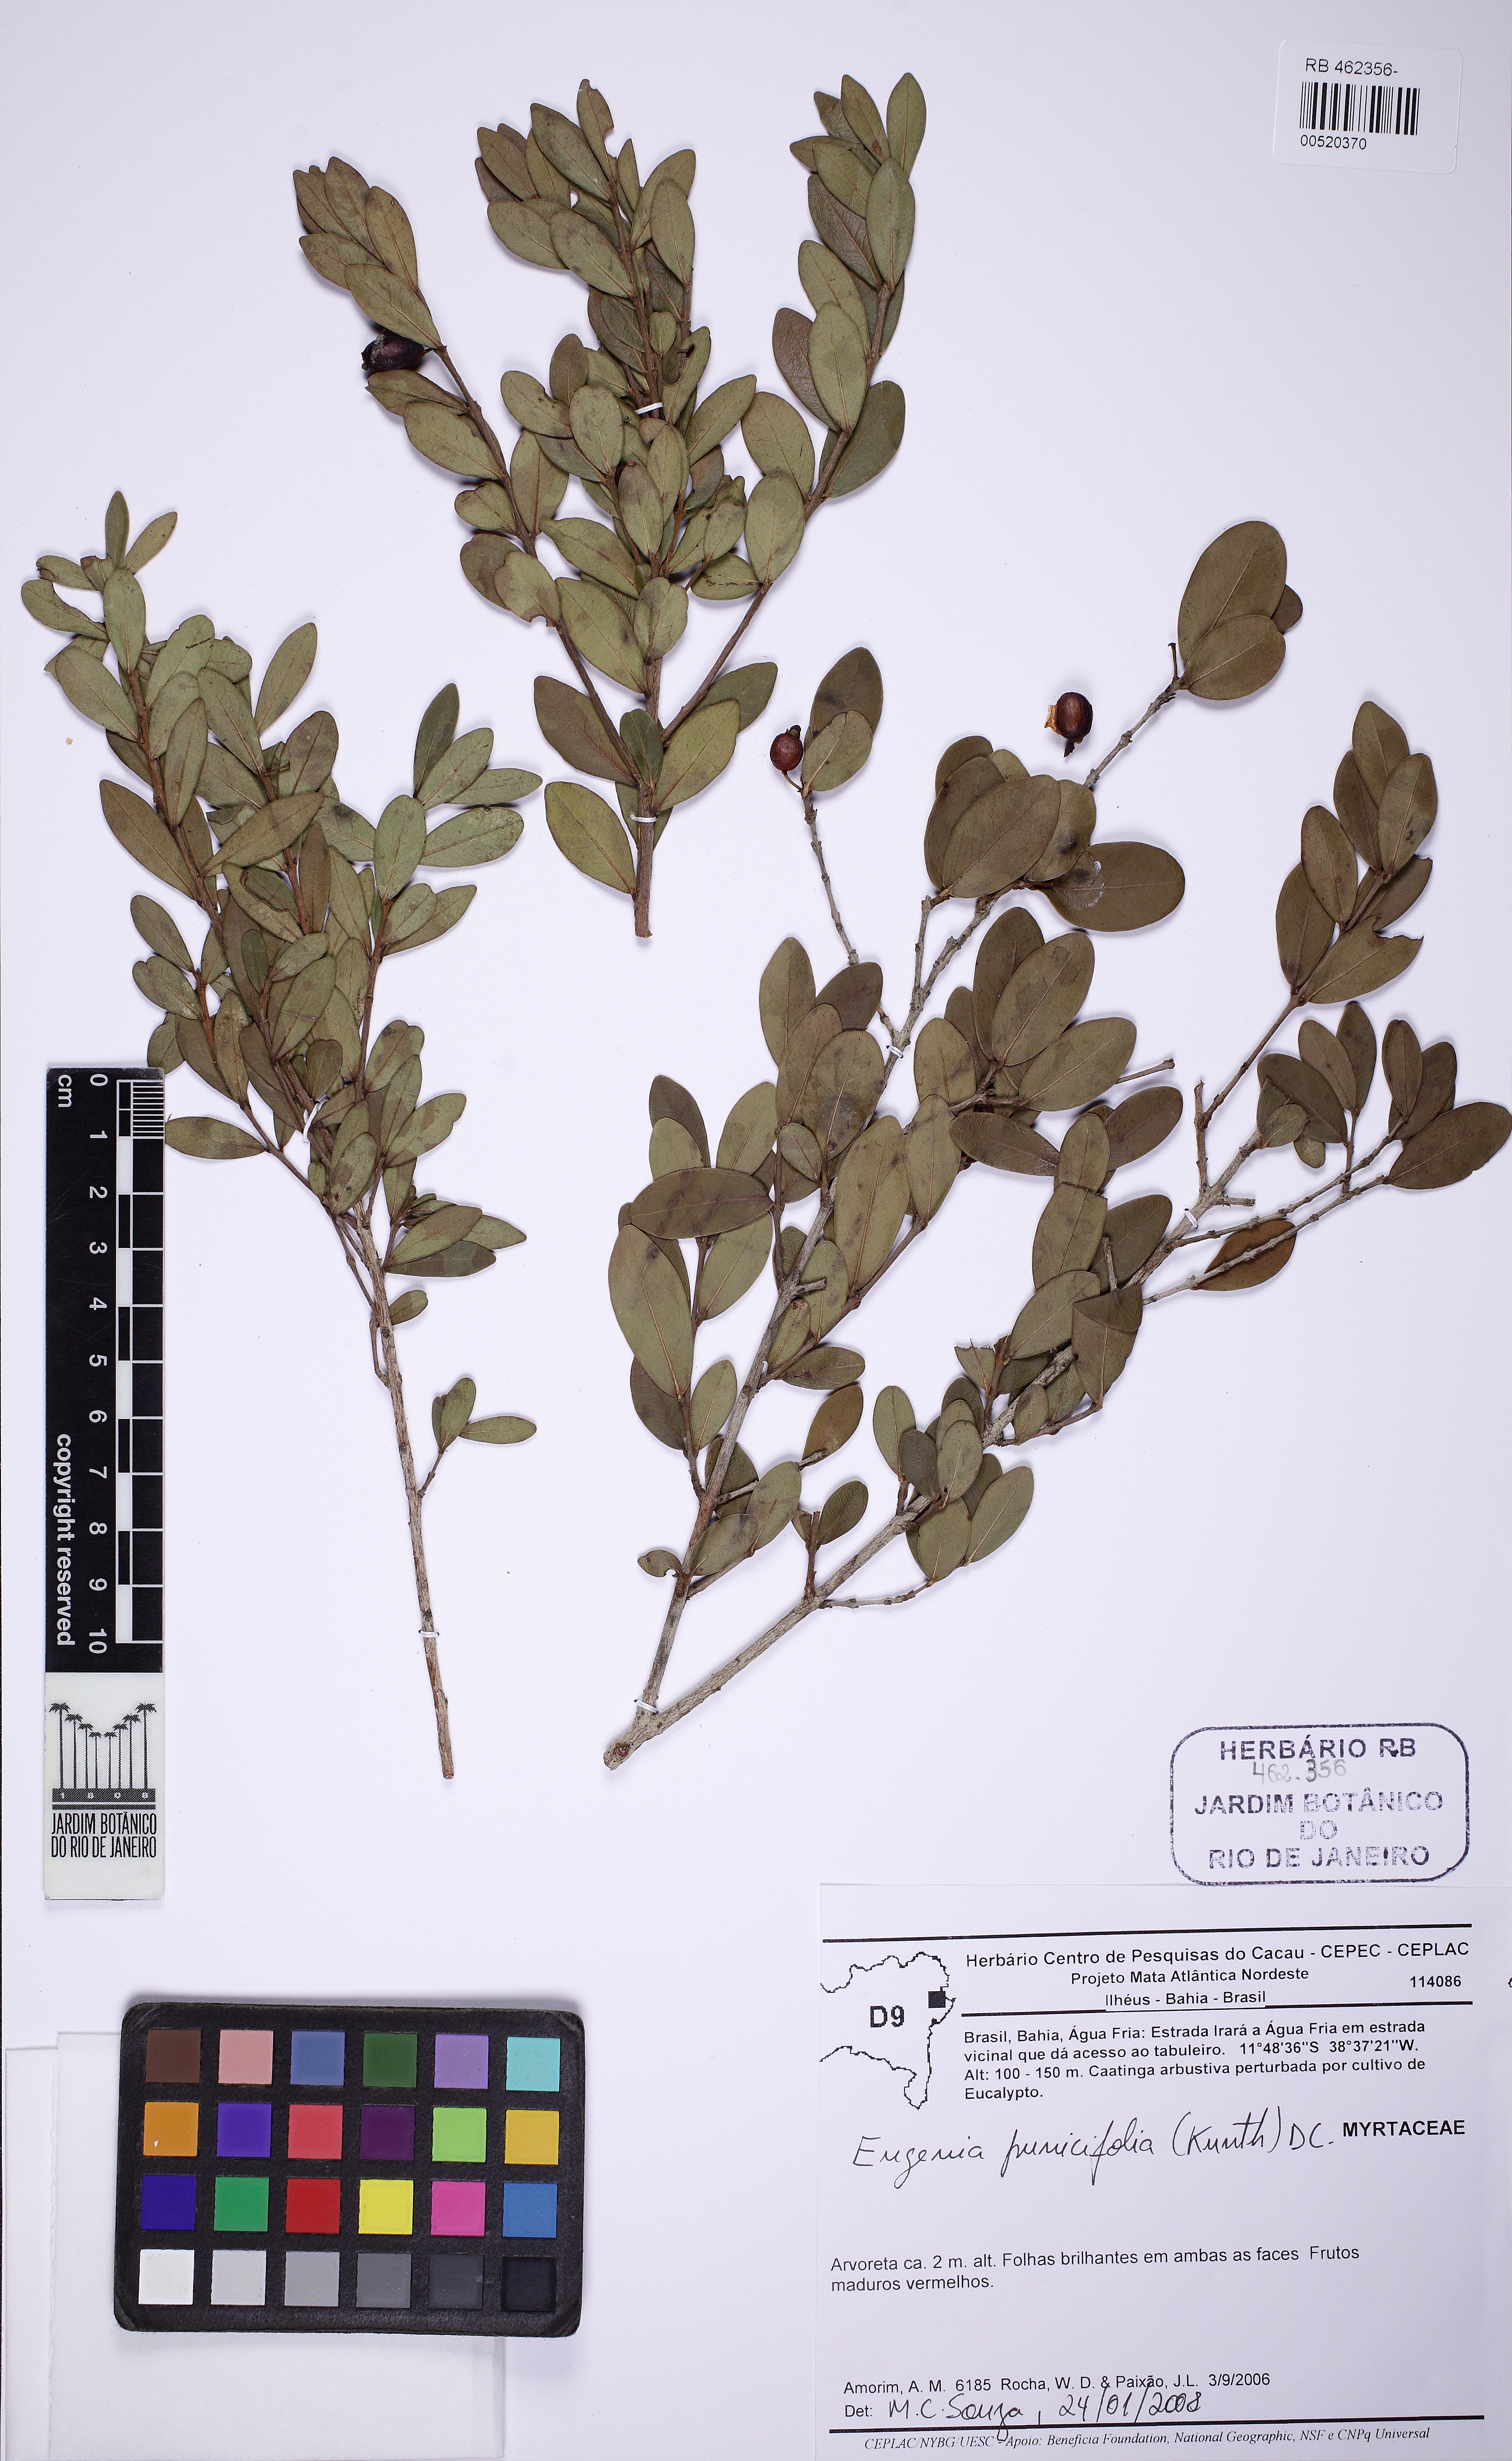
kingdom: Plantae
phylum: Tracheophyta
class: Magnoliopsida
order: Myrtales
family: Myrtaceae
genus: Eugenia
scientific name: Eugenia punicifolia
